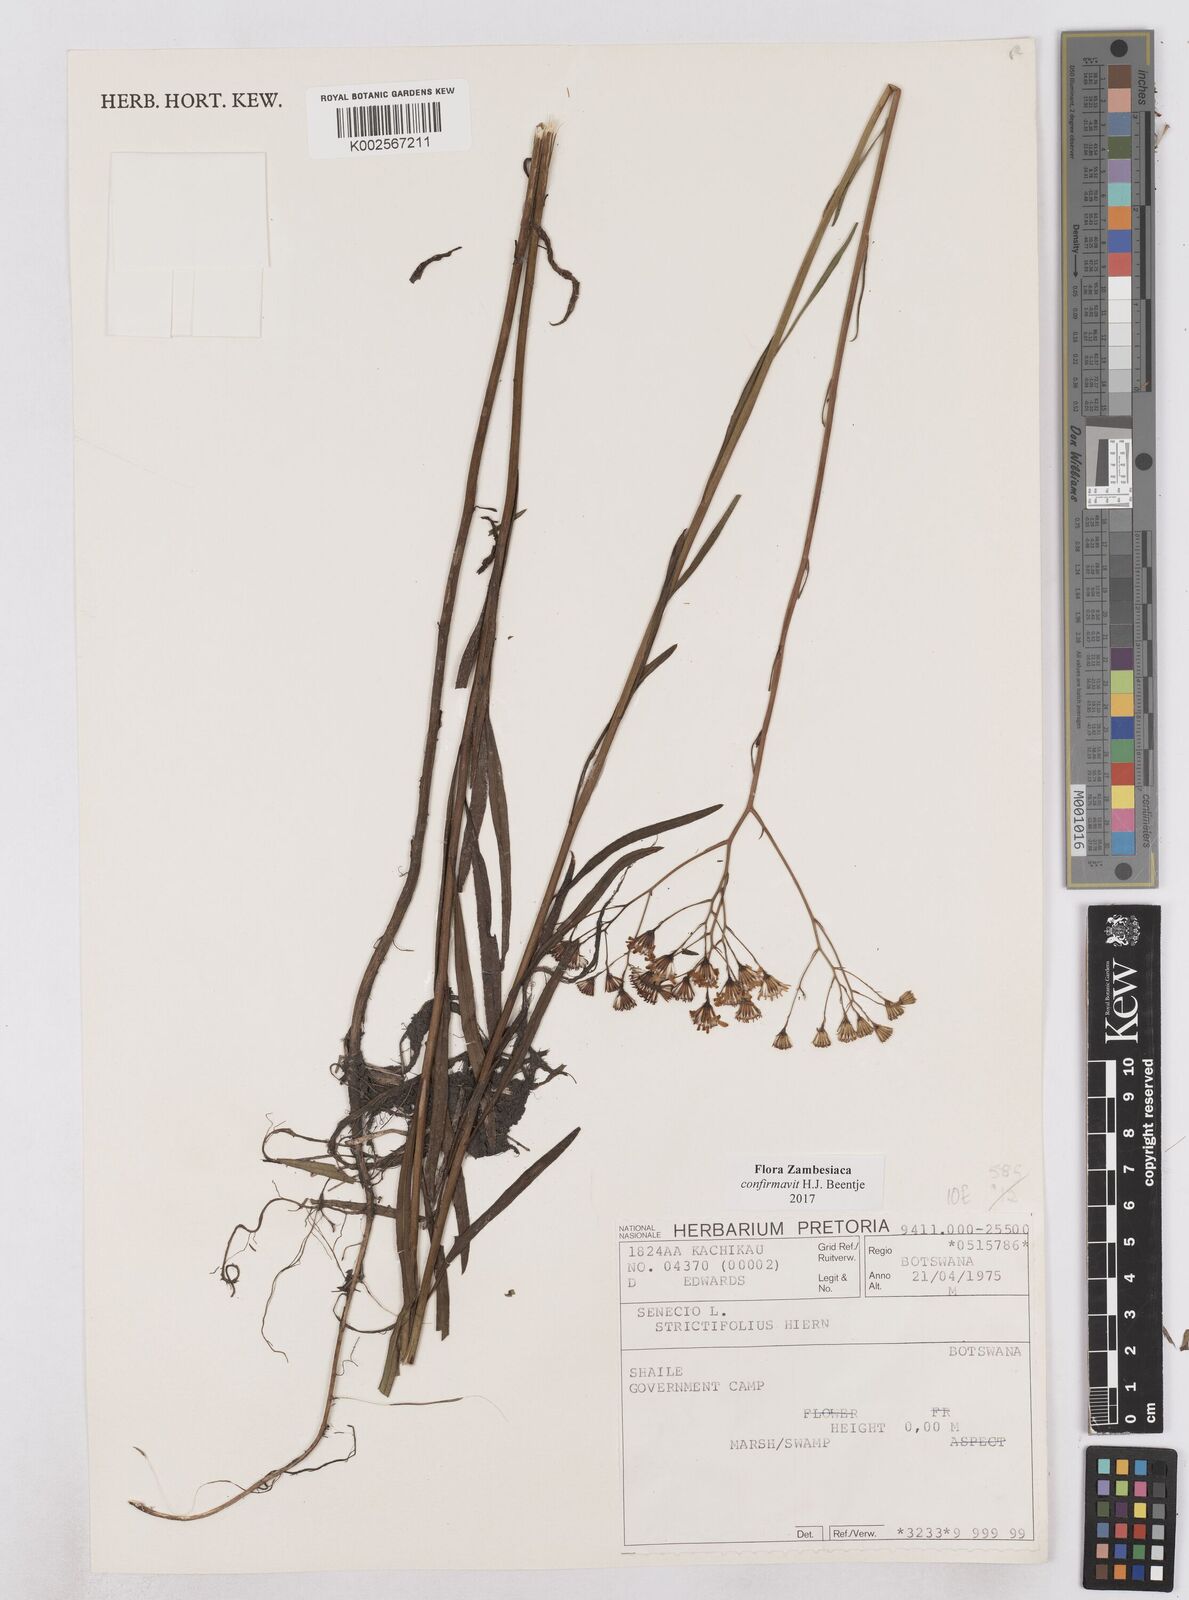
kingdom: Plantae
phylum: Tracheophyta
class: Magnoliopsida
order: Asterales
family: Asteraceae
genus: Senecio
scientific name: Senecio strictifolius
